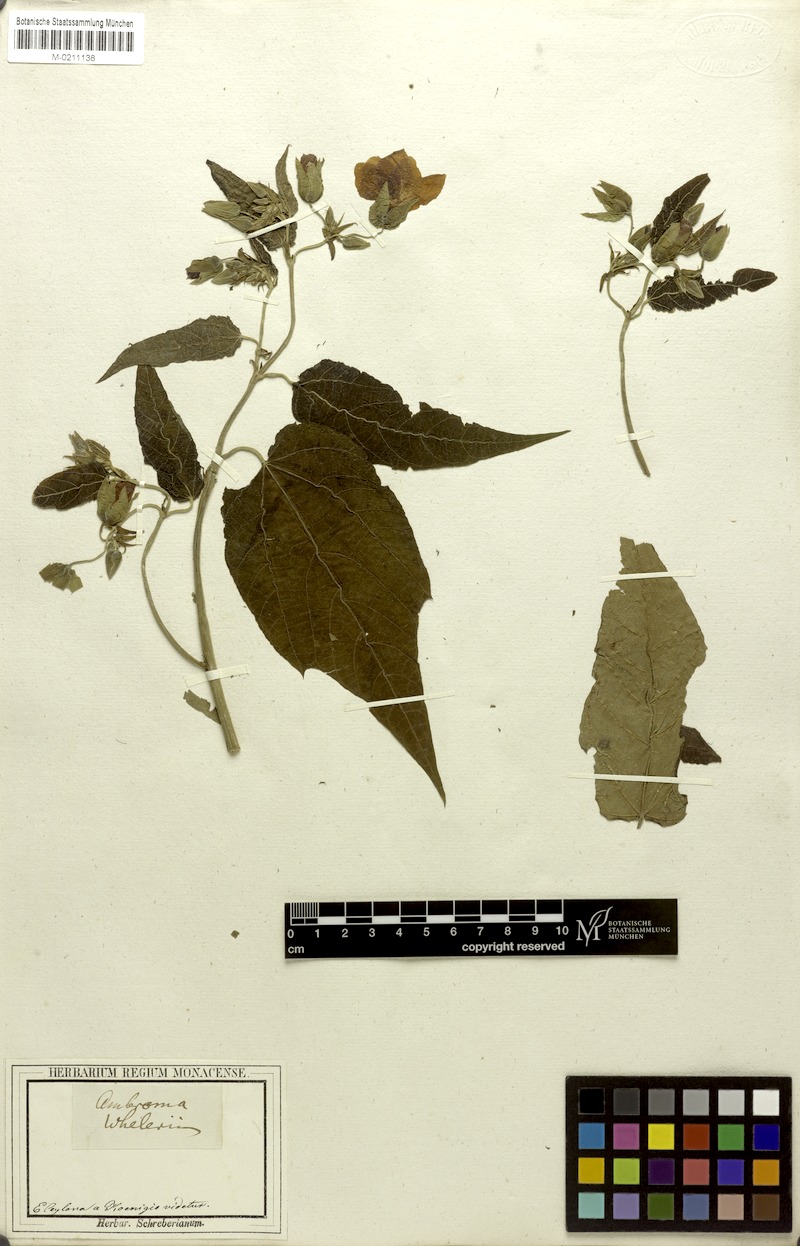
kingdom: Plantae
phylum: Tracheophyta
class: Magnoliopsida
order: Malvales
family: Malvaceae
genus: Abroma
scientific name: Abroma augustum
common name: Devil's-cotton
